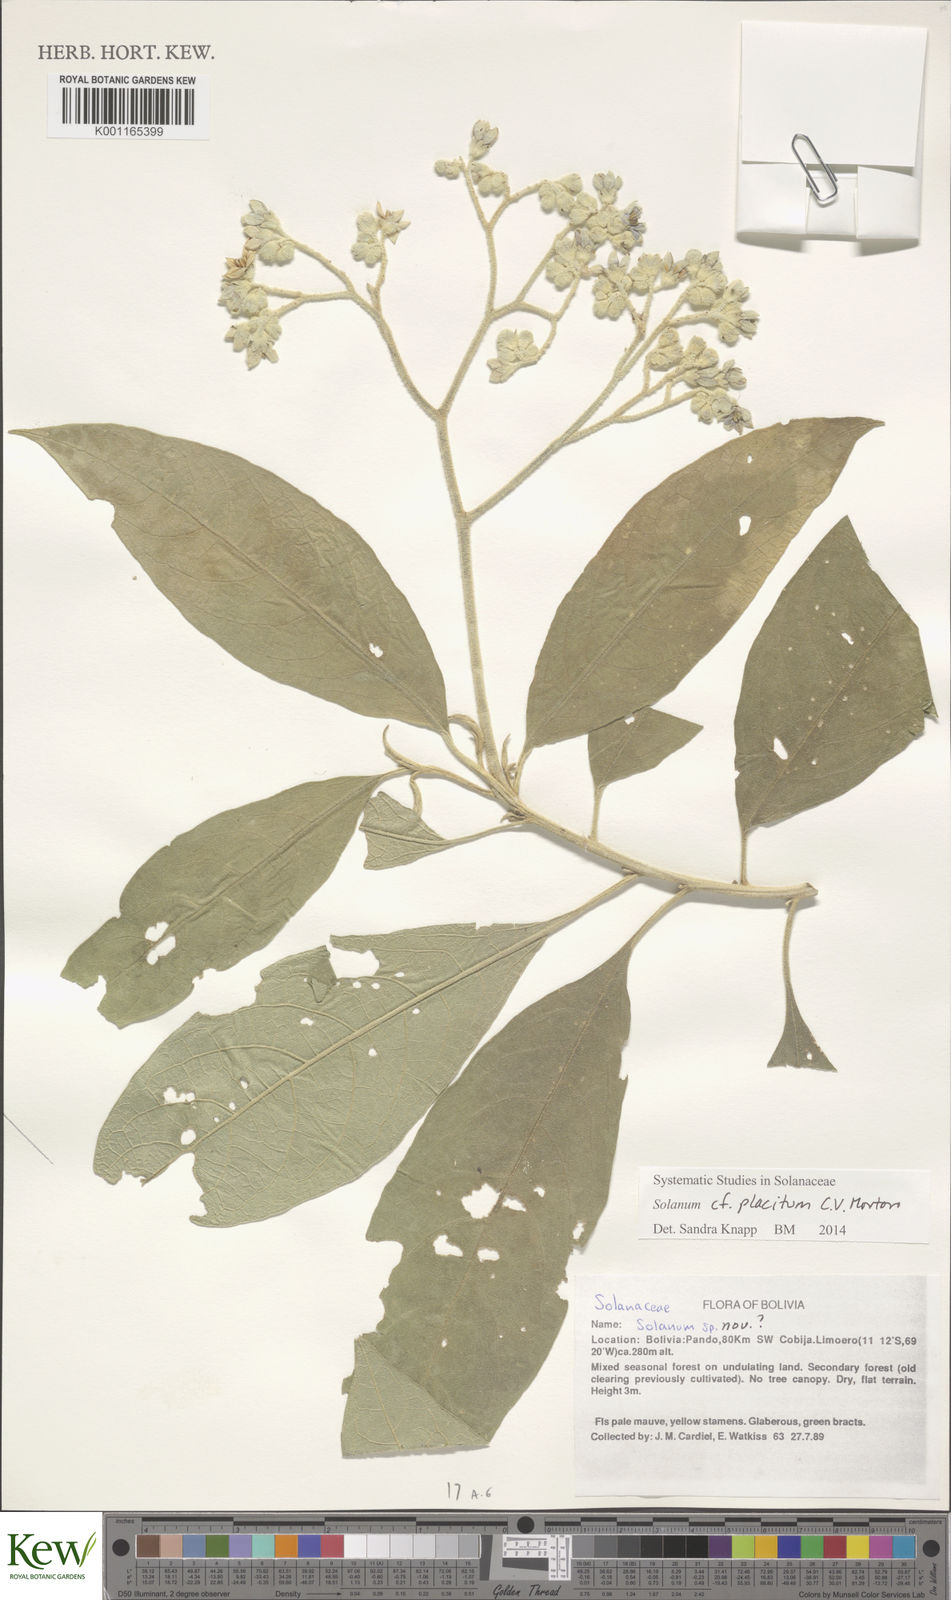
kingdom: Plantae
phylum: Tracheophyta
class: Magnoliopsida
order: Solanales
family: Solanaceae
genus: Solanum
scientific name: Solanum placitum
